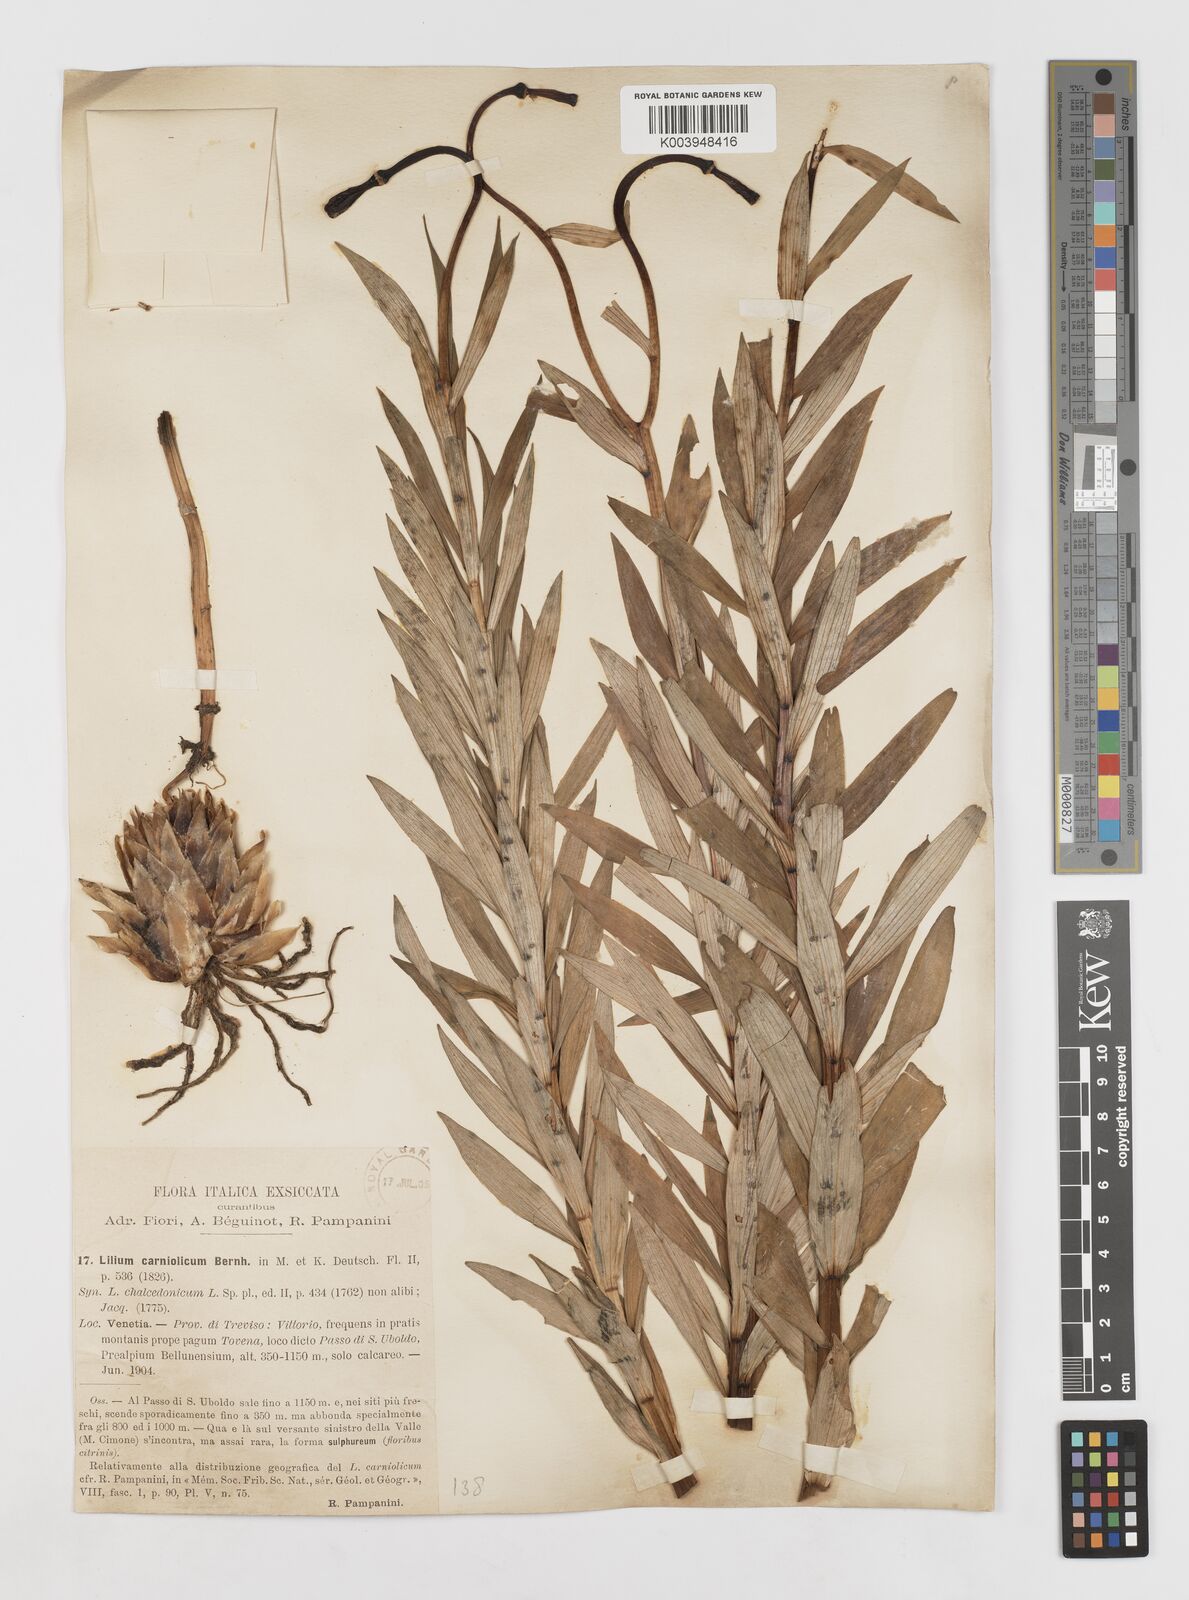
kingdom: Plantae
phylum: Tracheophyta
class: Liliopsida
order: Liliales
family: Liliaceae
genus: Lilium
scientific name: Lilium carniolicum
